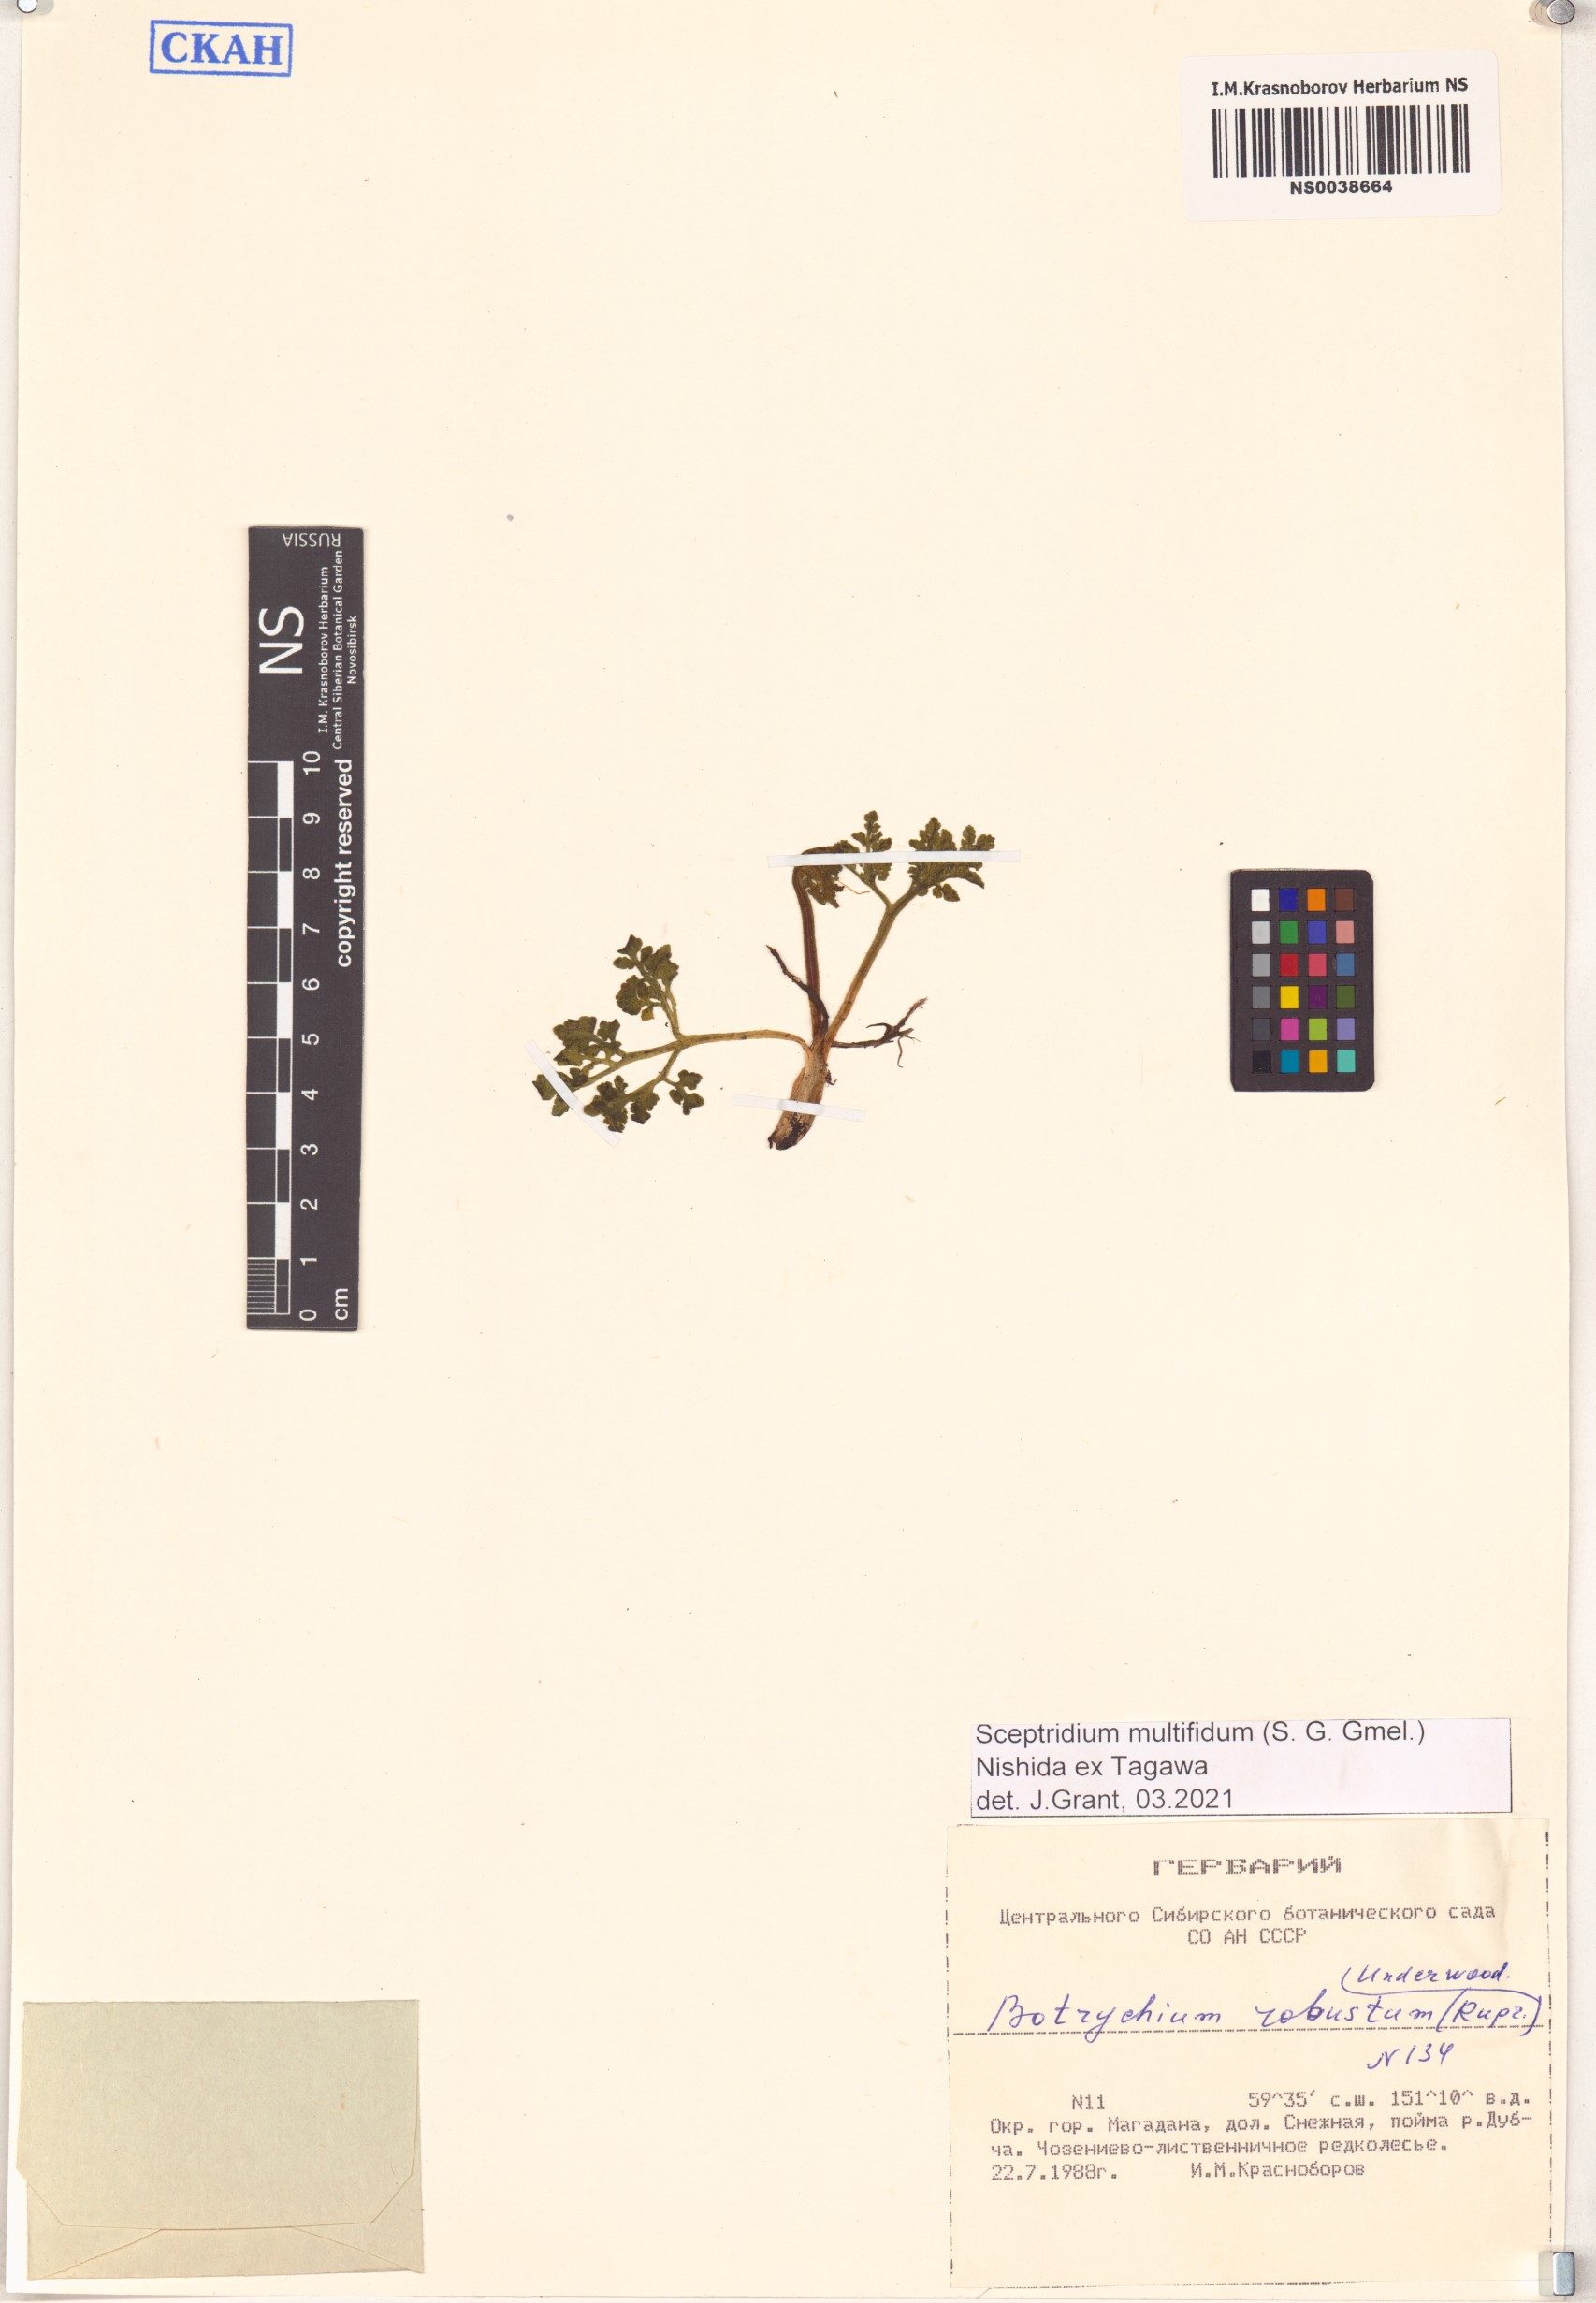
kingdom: Plantae
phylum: Tracheophyta
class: Polypodiopsida
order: Ophioglossales
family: Ophioglossaceae
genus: Sceptridium
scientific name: Sceptridium multifidum
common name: Leathery grape fern
